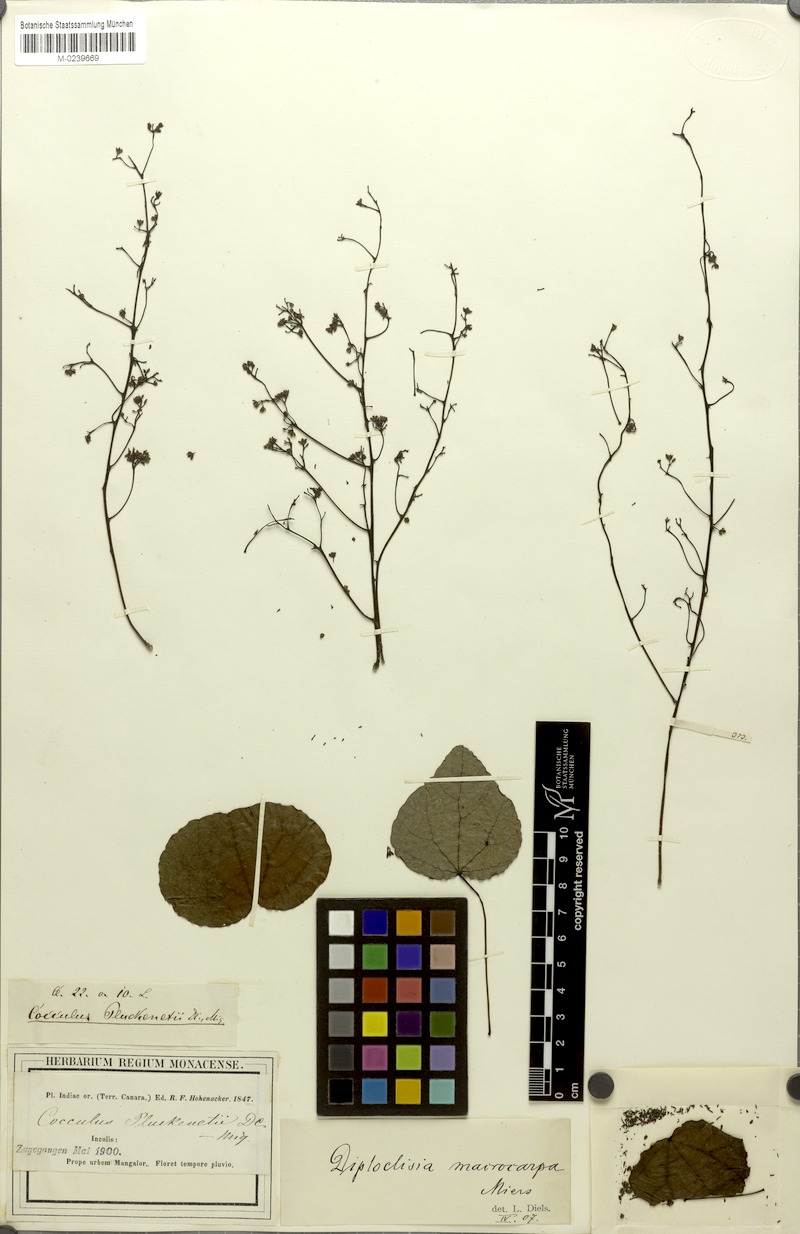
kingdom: Plantae
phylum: Tracheophyta
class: Magnoliopsida
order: Ranunculales
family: Menispermaceae
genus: Diploclisia
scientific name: Diploclisia glaucescens
